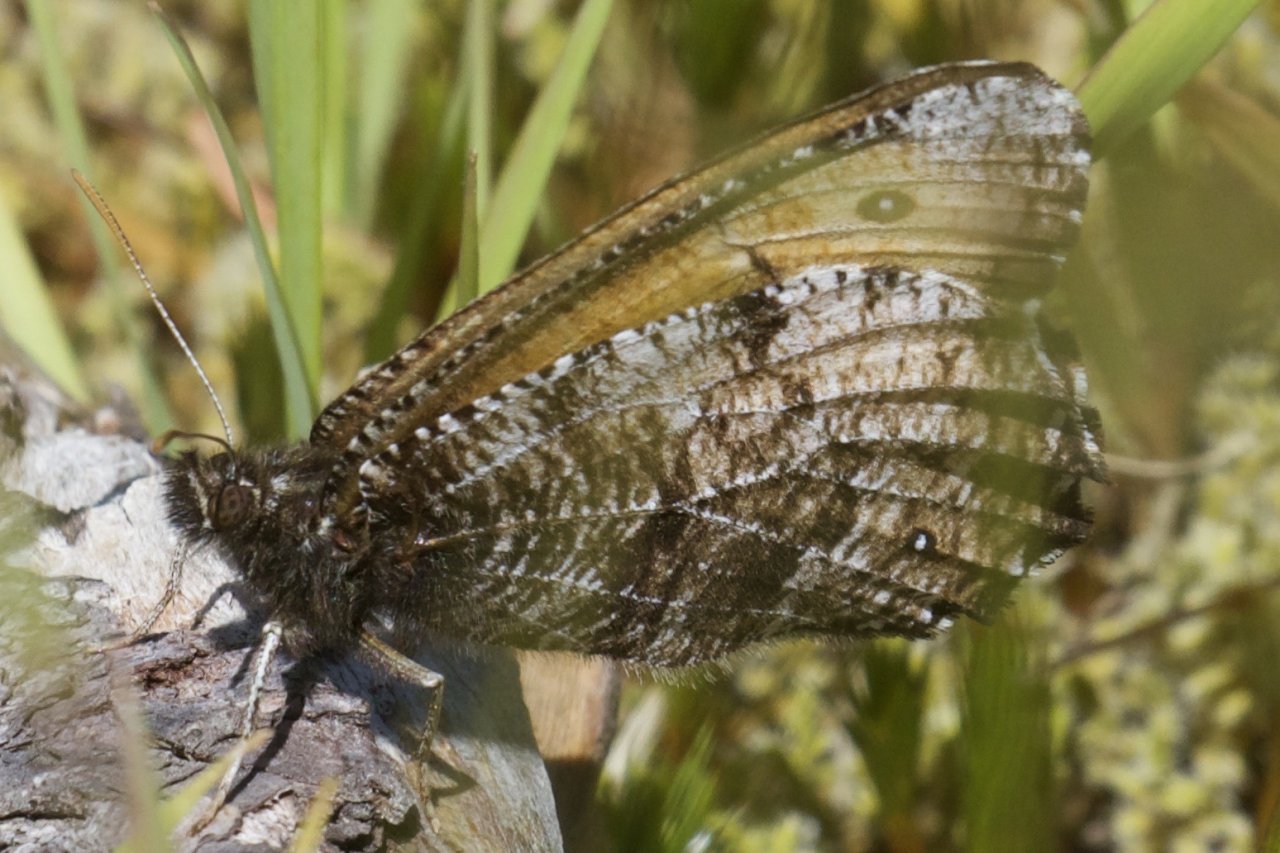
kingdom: Animalia
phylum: Arthropoda
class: Insecta
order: Lepidoptera
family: Nymphalidae
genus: Oeneis
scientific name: Oeneis nevadensis
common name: Great Arctic
